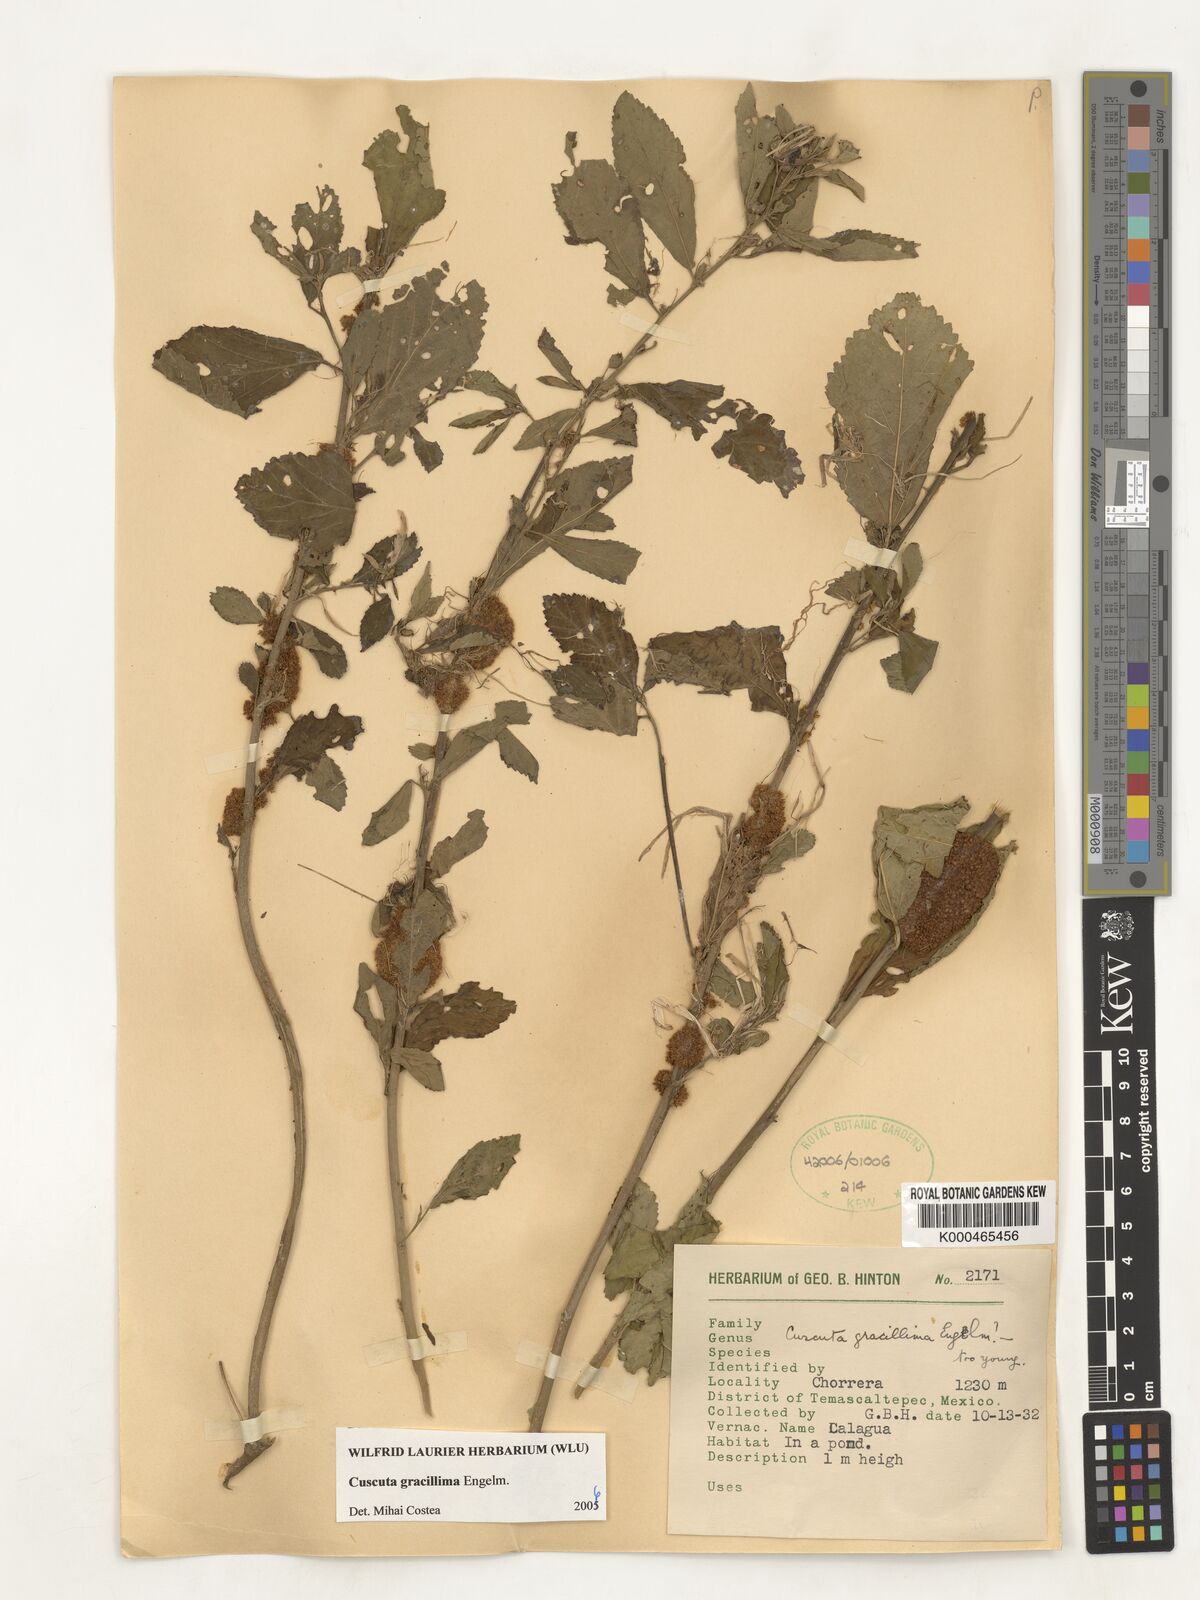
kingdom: Plantae
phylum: Tracheophyta
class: Magnoliopsida
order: Solanales
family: Convolvulaceae
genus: Cuscuta
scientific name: Cuscuta gracillima
